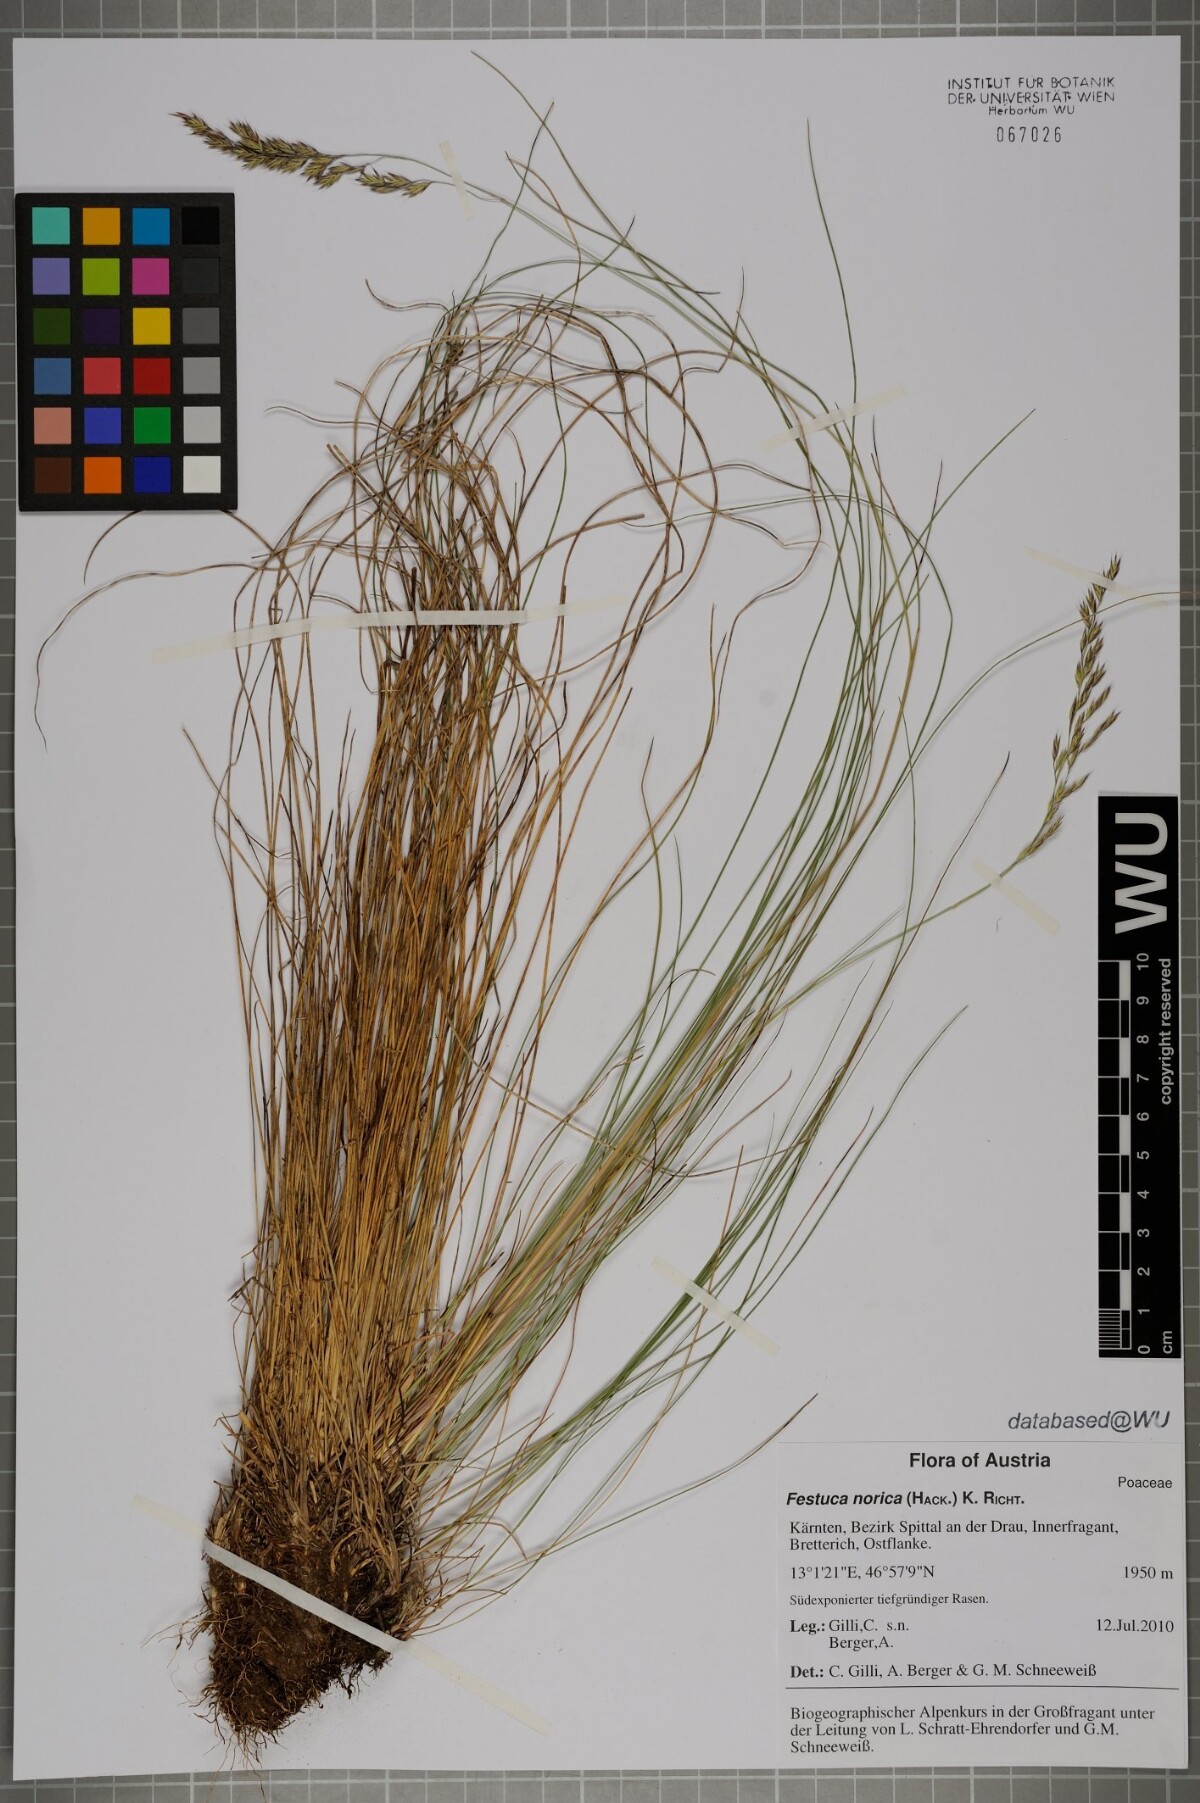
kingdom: Plantae
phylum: Tracheophyta
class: Liliopsida
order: Poales
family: Poaceae
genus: Festuca
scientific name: Festuca norica
